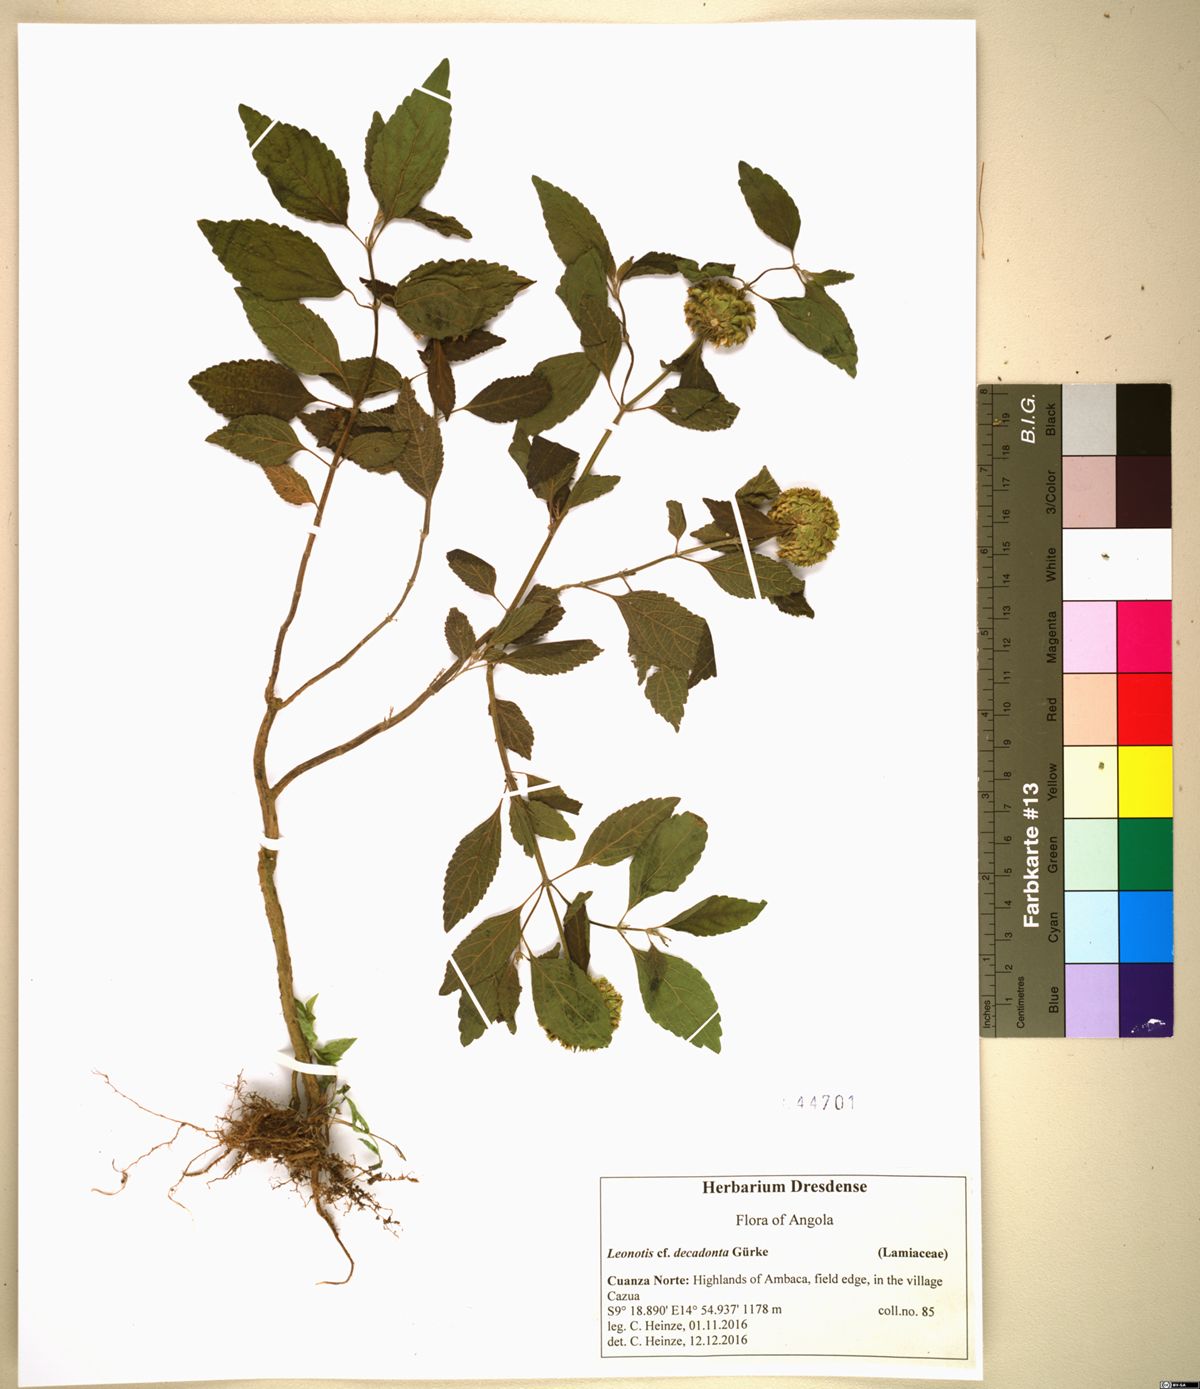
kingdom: Plantae
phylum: Tracheophyta
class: Magnoliopsida
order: Lamiales
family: Lamiaceae
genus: Leonotis
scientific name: Leonotis decadonta
